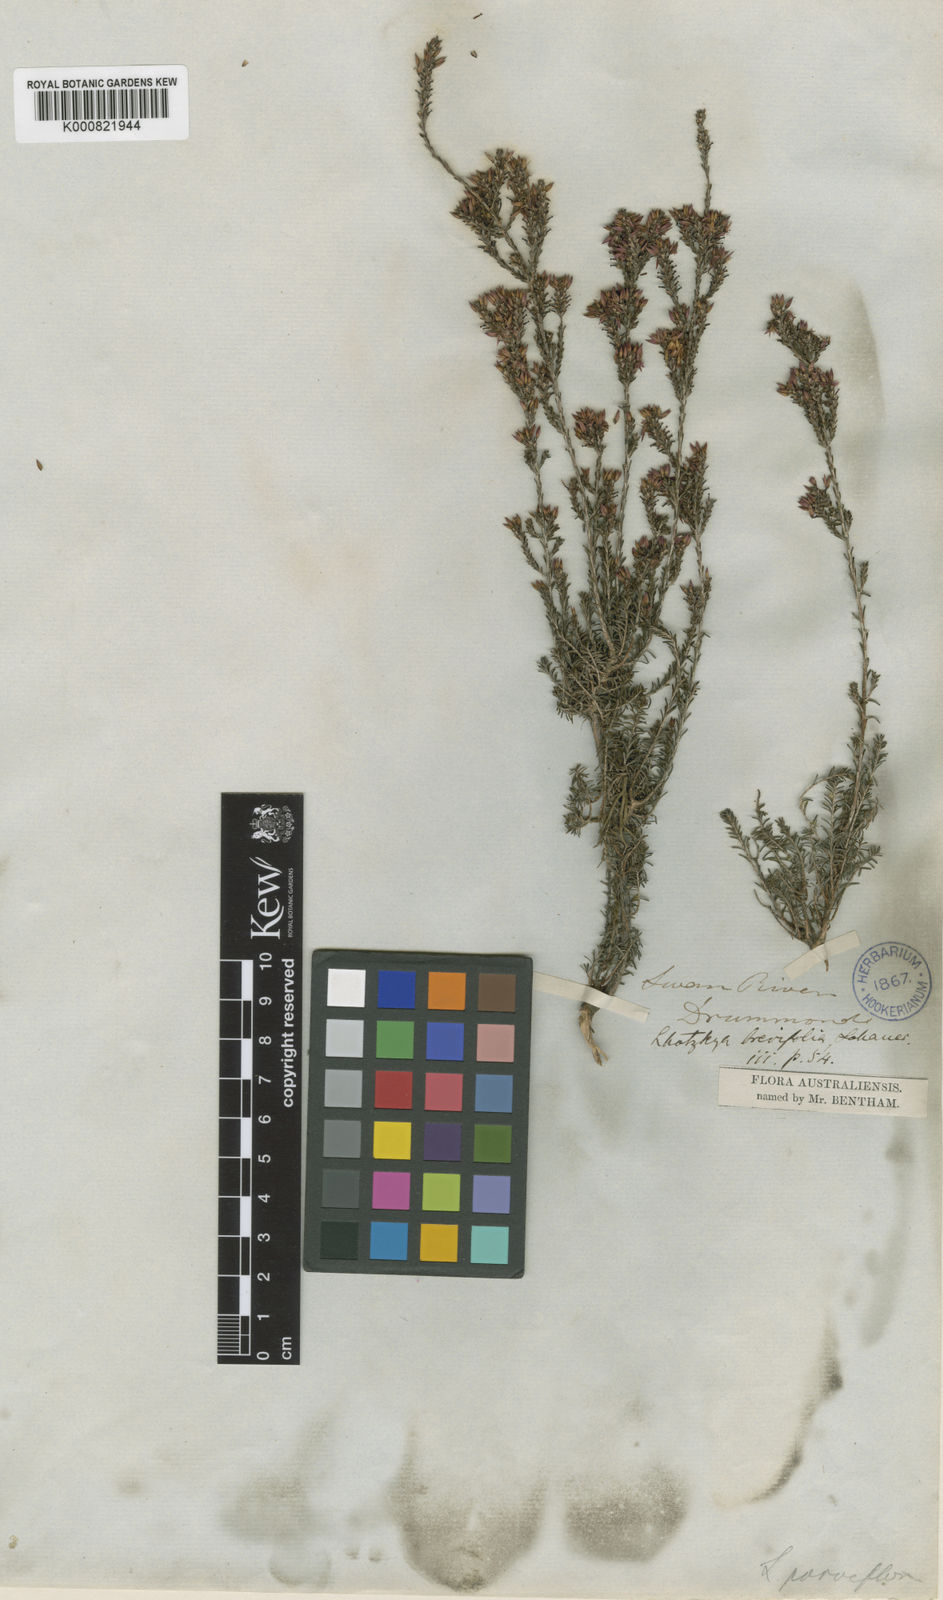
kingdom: Plantae
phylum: Tracheophyta
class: Magnoliopsida
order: Myrtales
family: Myrtaceae
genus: Calytrix
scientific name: Calytrix sylvana
